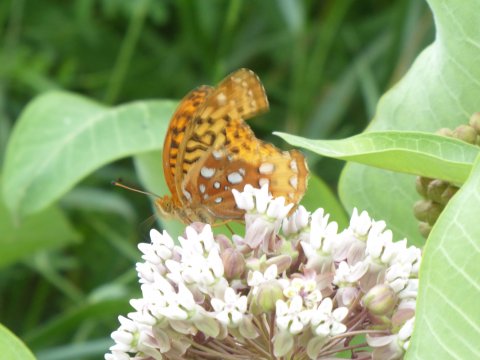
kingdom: Animalia
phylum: Arthropoda
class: Insecta
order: Lepidoptera
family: Nymphalidae
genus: Speyeria
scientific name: Speyeria cybele
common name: Great Spangled Fritillary
